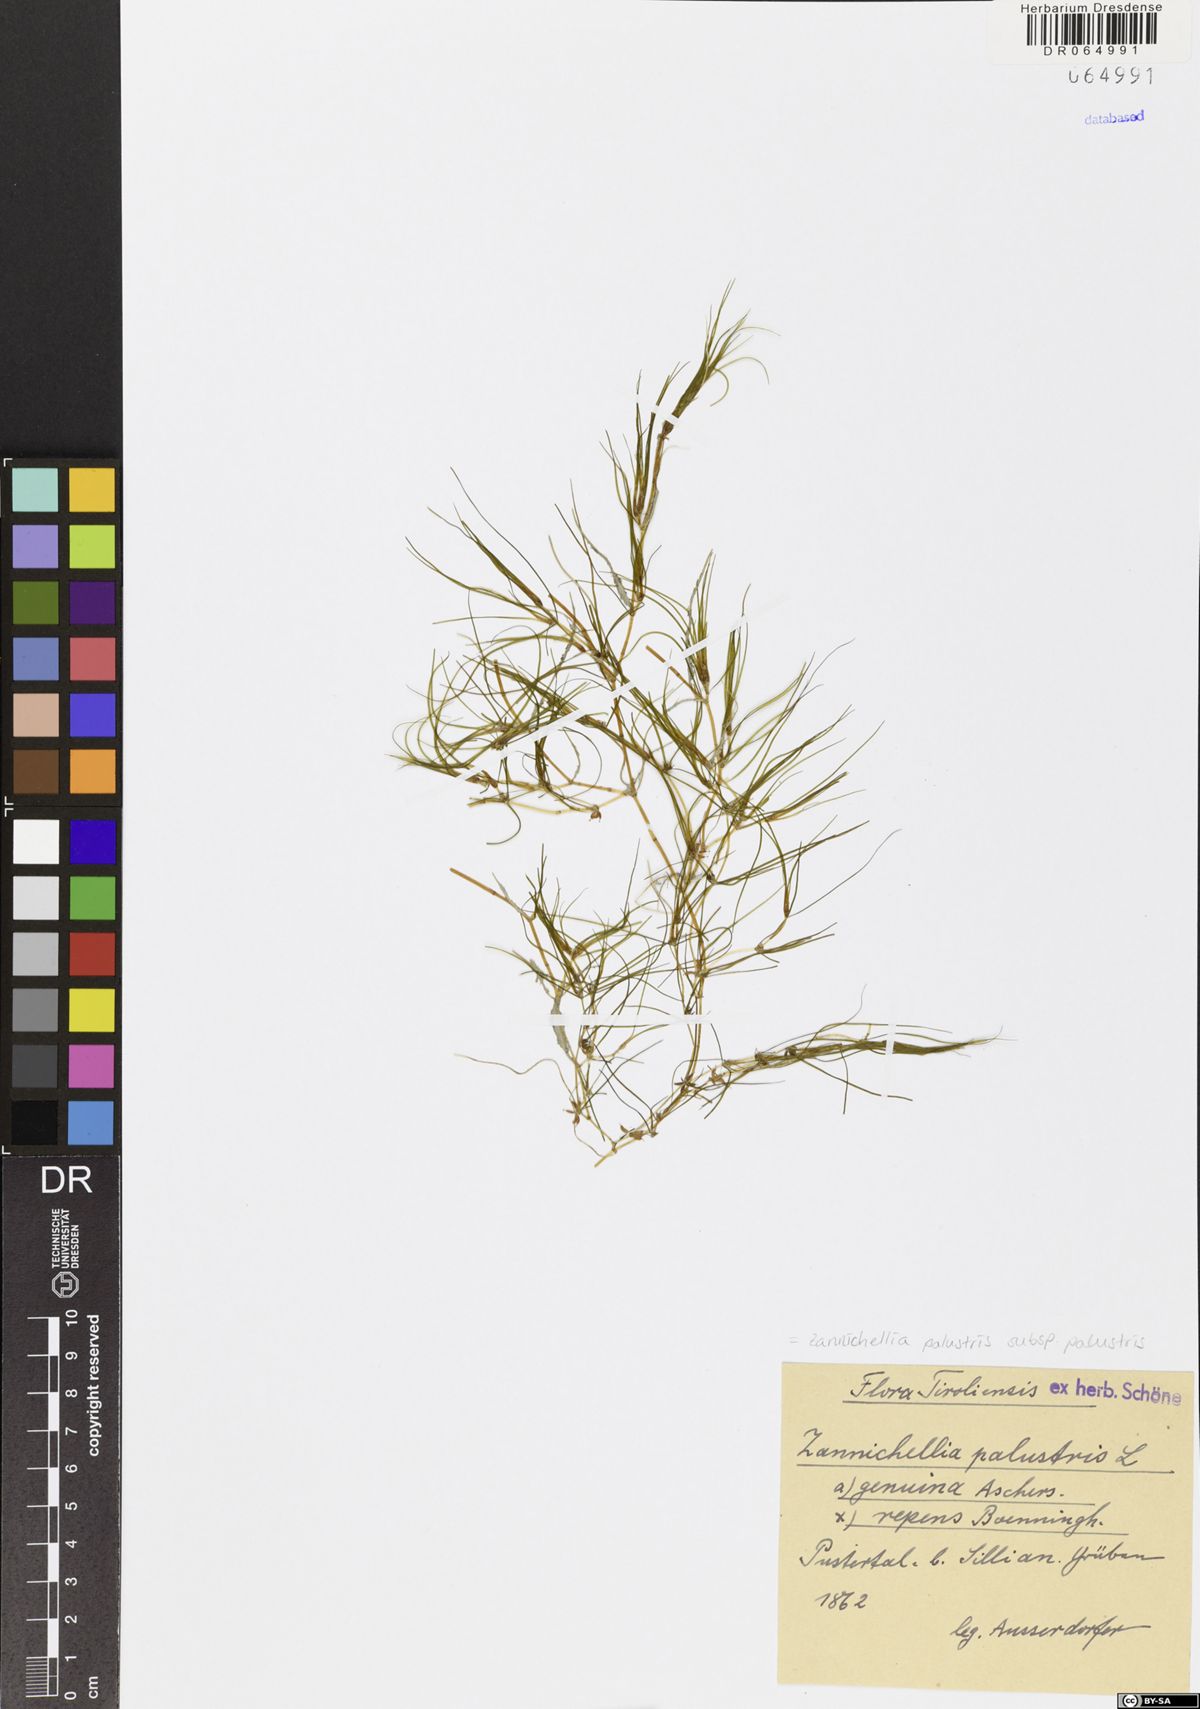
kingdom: Plantae
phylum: Tracheophyta
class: Liliopsida
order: Alismatales
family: Potamogetonaceae
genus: Zannichellia
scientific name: Zannichellia palustris
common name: Horned pondweed
